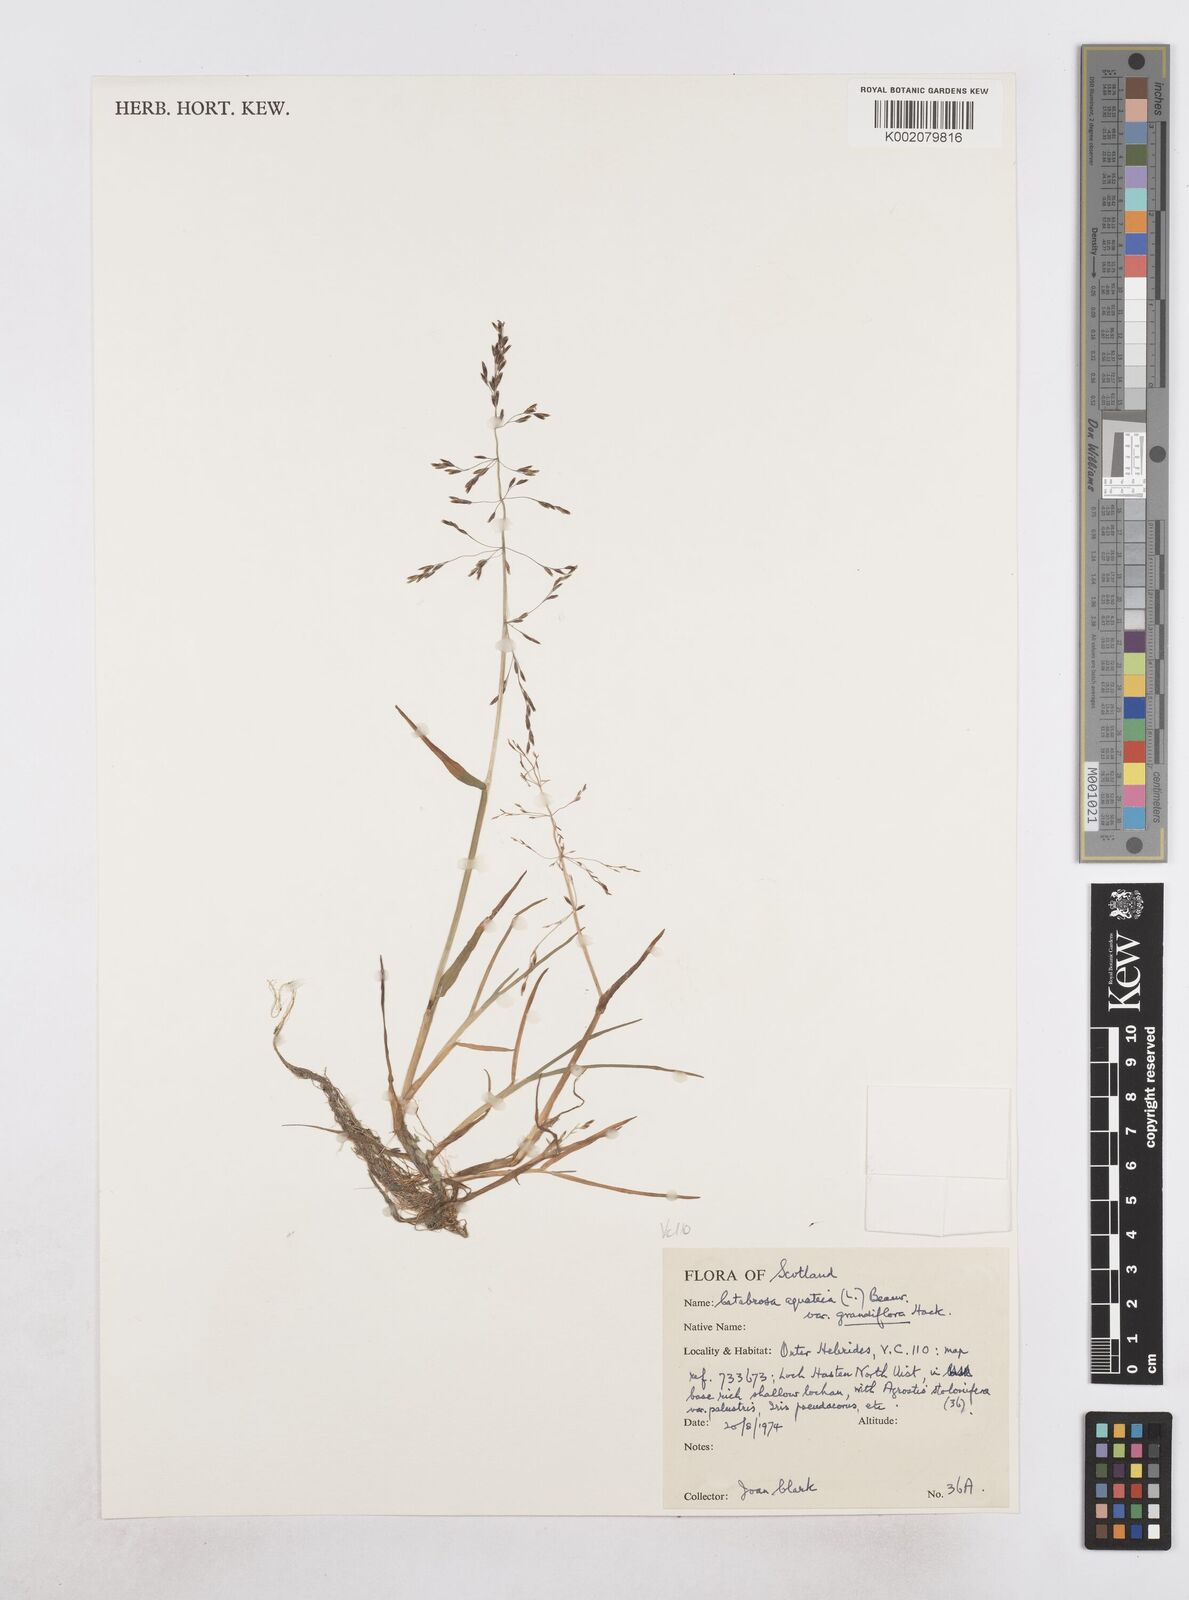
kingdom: Plantae
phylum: Tracheophyta
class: Liliopsida
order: Poales
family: Poaceae
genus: Catabrosa
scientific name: Catabrosa aquatica
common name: Whorl-grass
